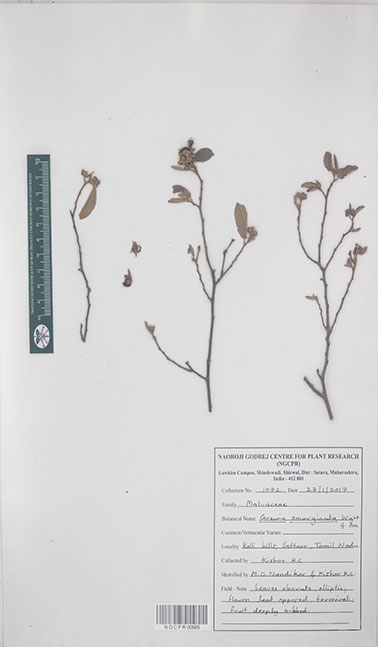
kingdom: Plantae
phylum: Tracheophyta
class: Magnoliopsida
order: Malvales
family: Malvaceae
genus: Grewia
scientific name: Grewia oppositifolia
